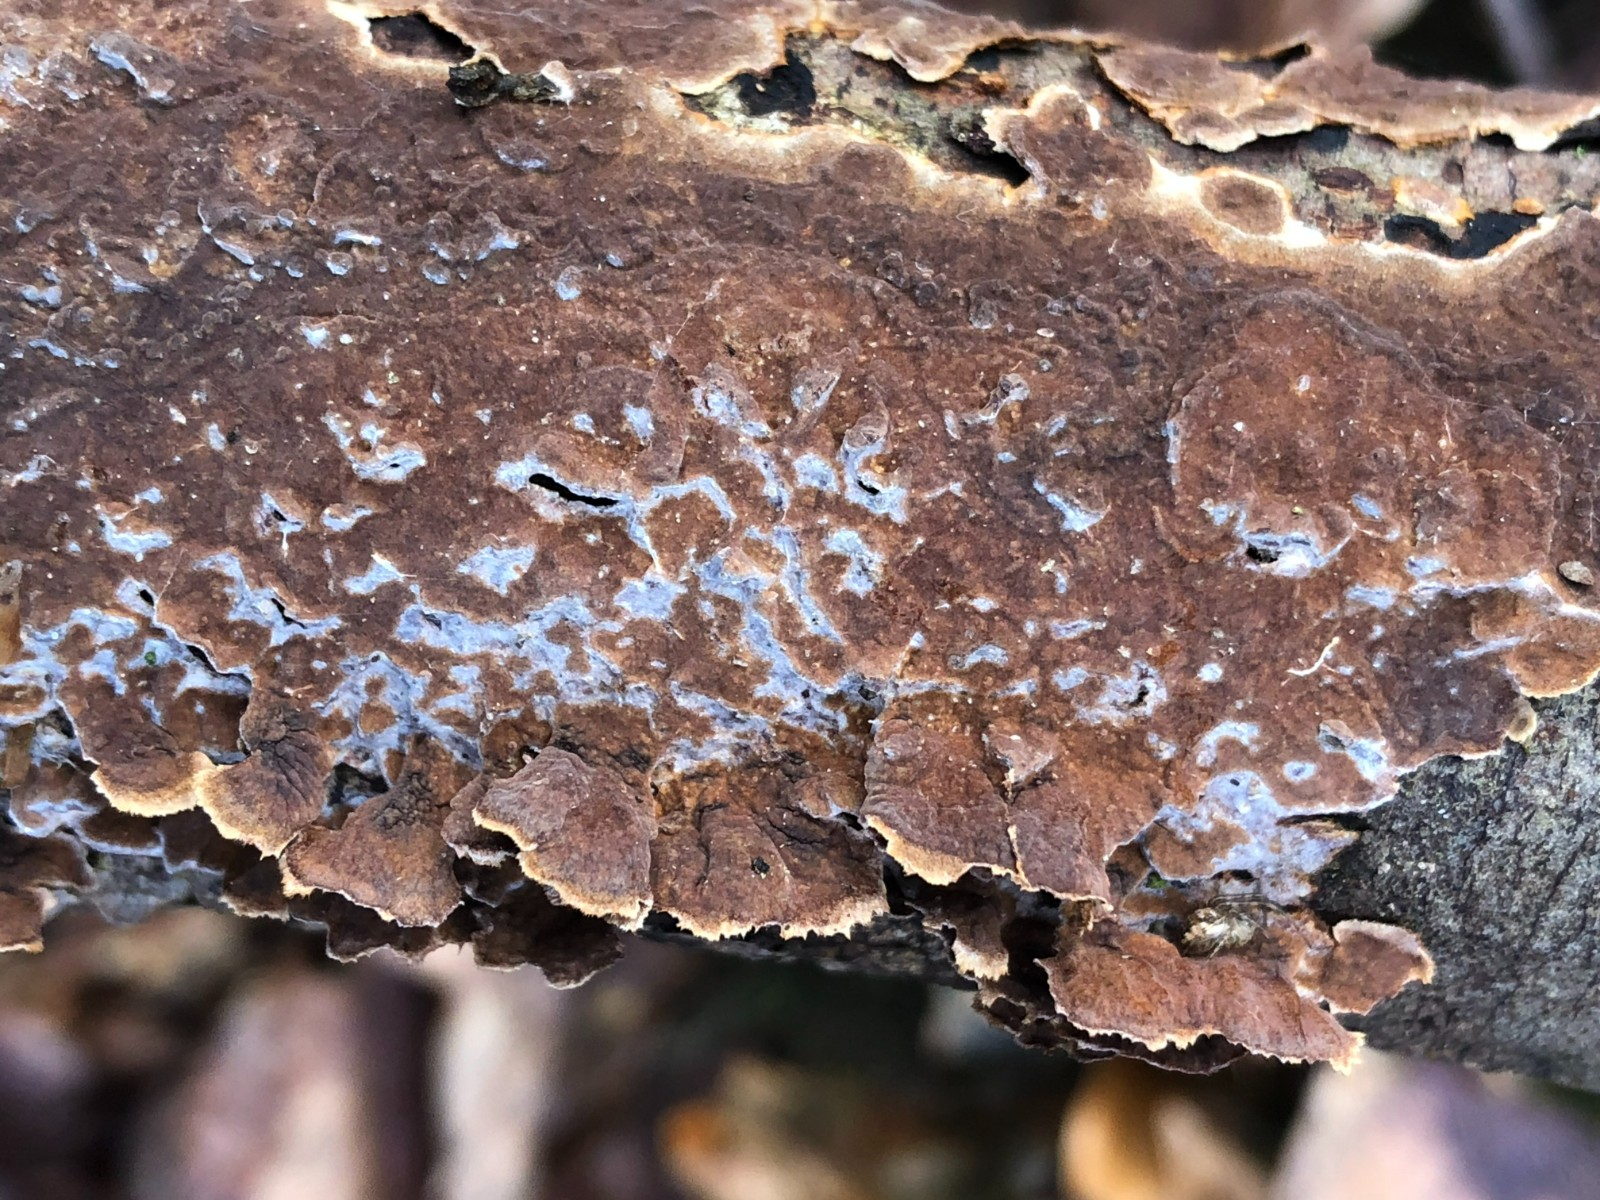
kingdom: Fungi
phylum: Basidiomycota
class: Agaricomycetes
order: Hymenochaetales
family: Hymenochaetaceae
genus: Hydnoporia
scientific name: Hydnoporia tabacina
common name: tobaksbrun ruslædersvamp
